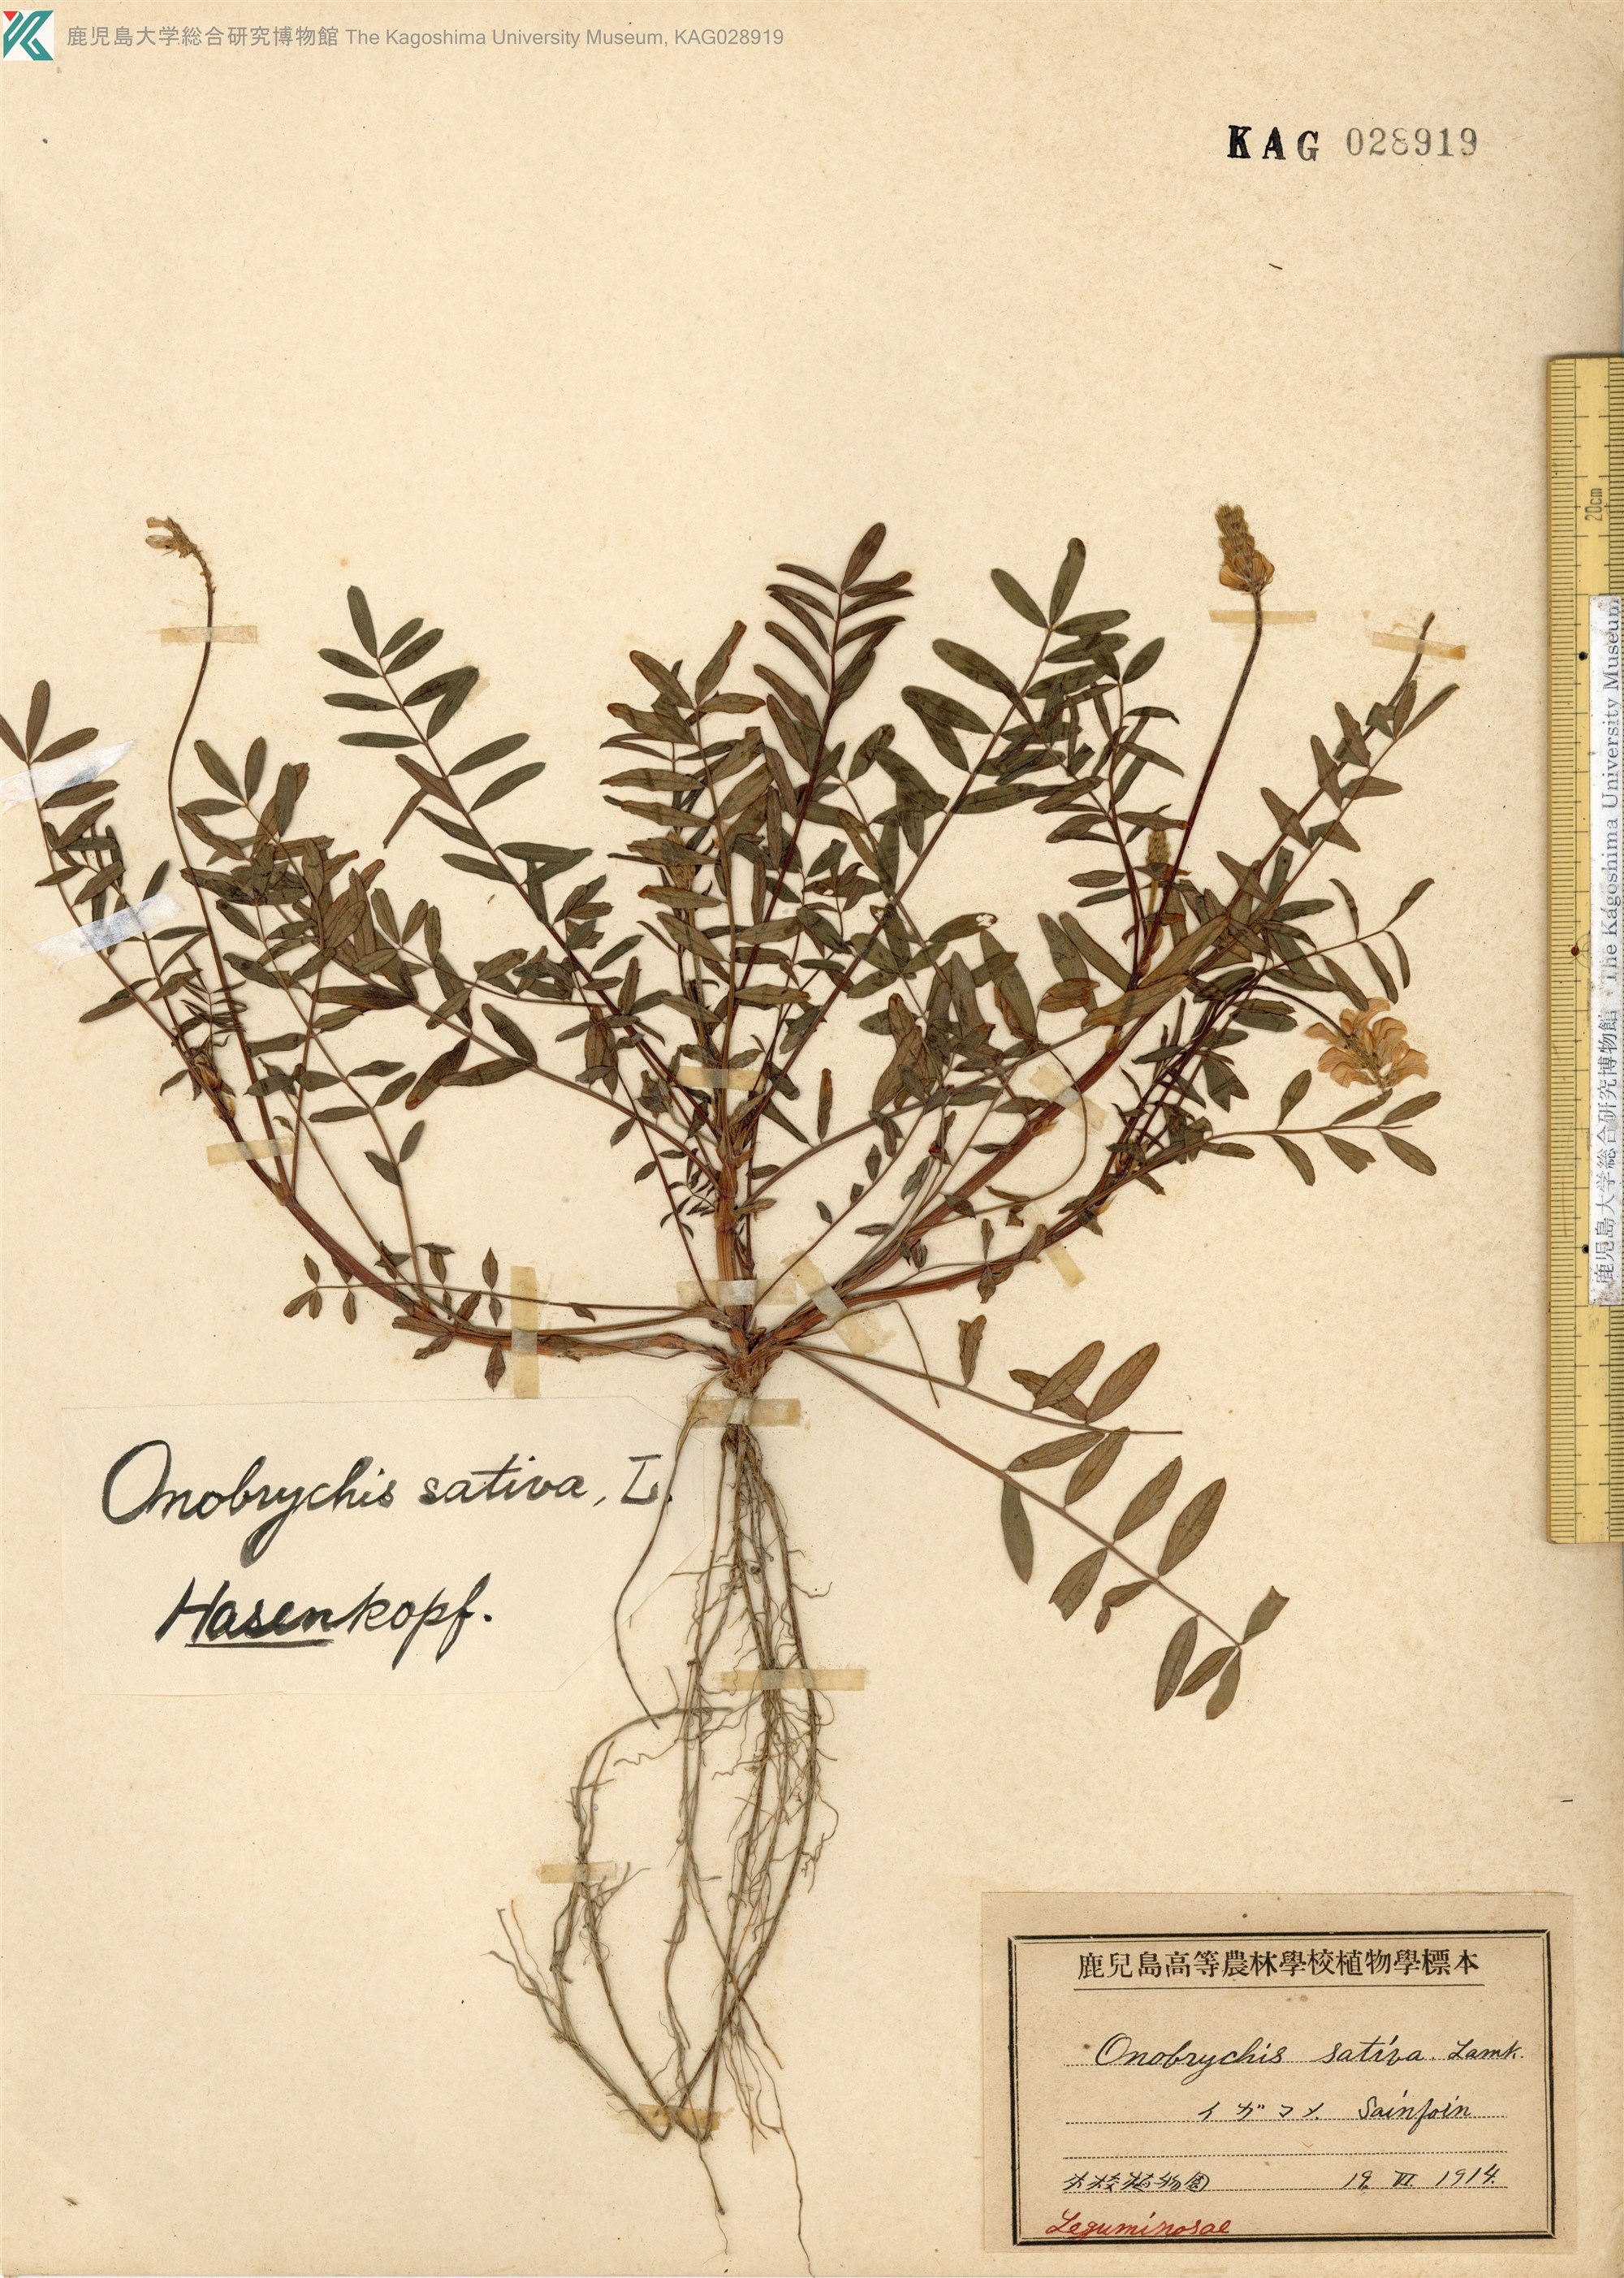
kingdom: Plantae
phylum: Tracheophyta
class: Magnoliopsida
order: Fabales
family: Fabaceae
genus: Onobrychis
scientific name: Onobrychis
